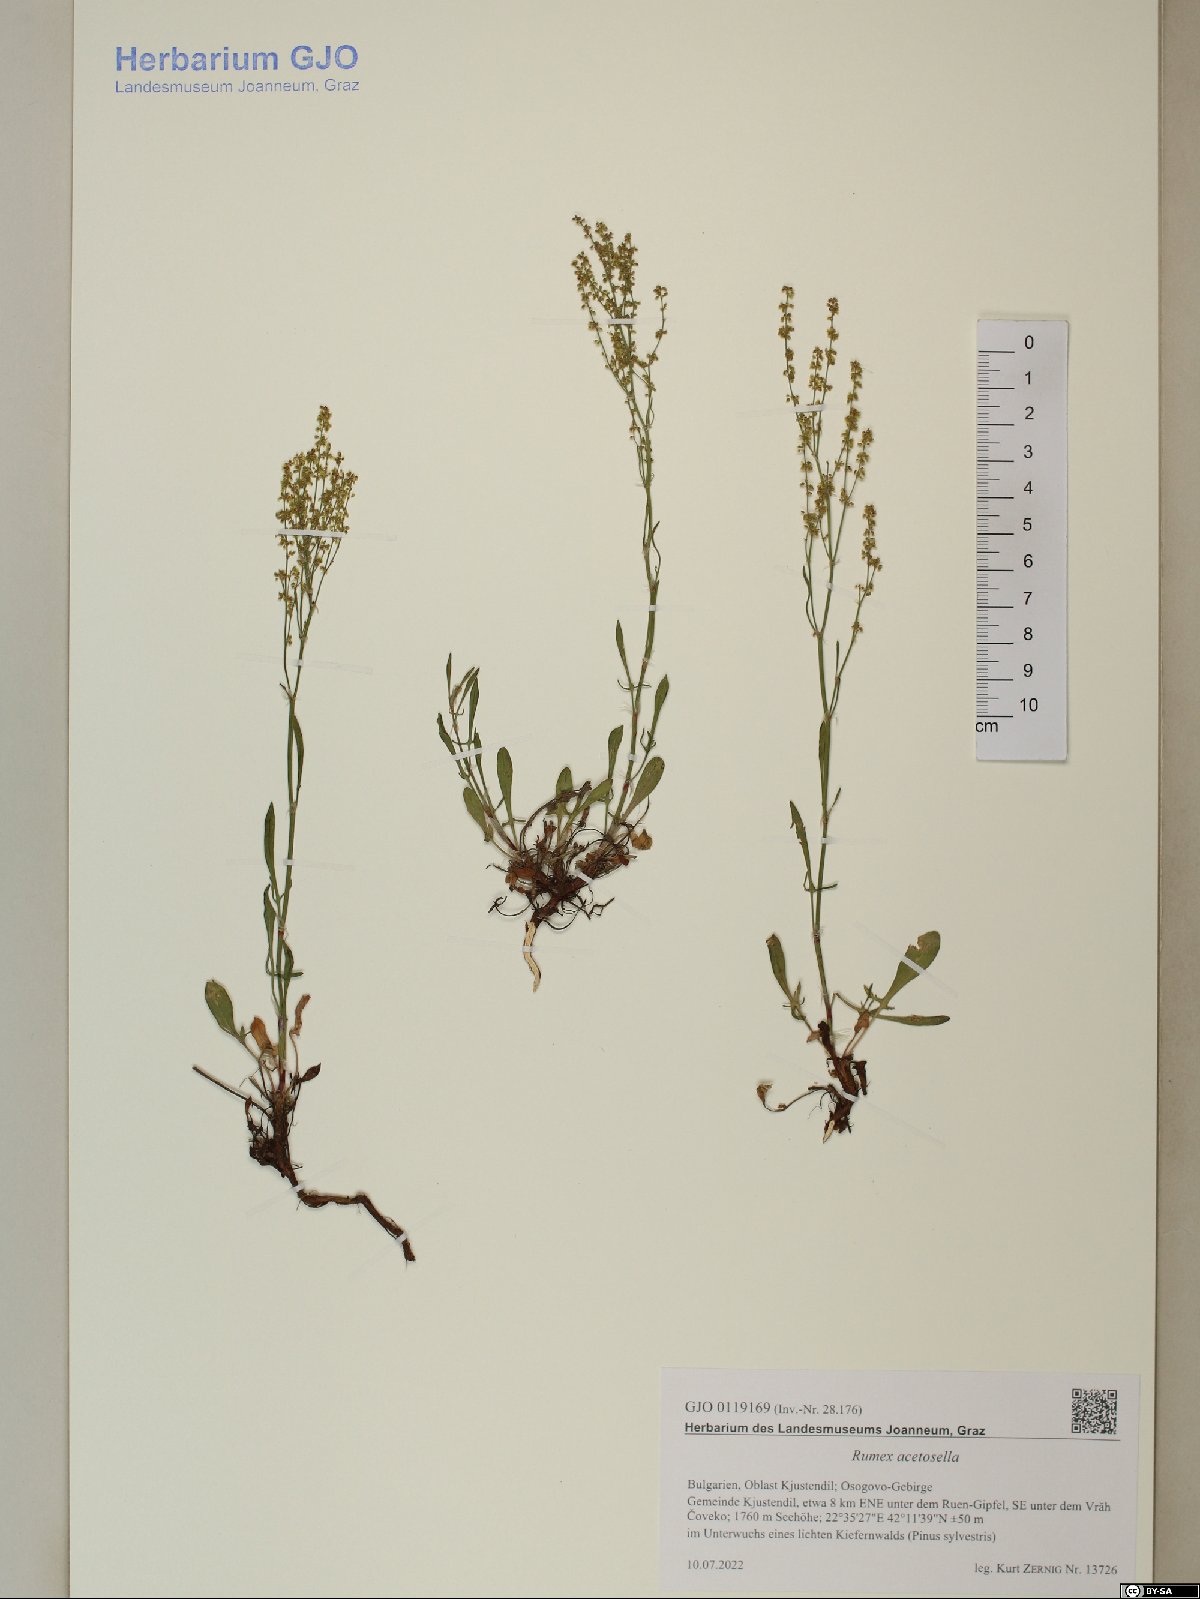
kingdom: Plantae
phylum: Tracheophyta
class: Magnoliopsida
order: Caryophyllales
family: Polygonaceae
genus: Rumex
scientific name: Rumex acetosella
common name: Common sheep sorrel
